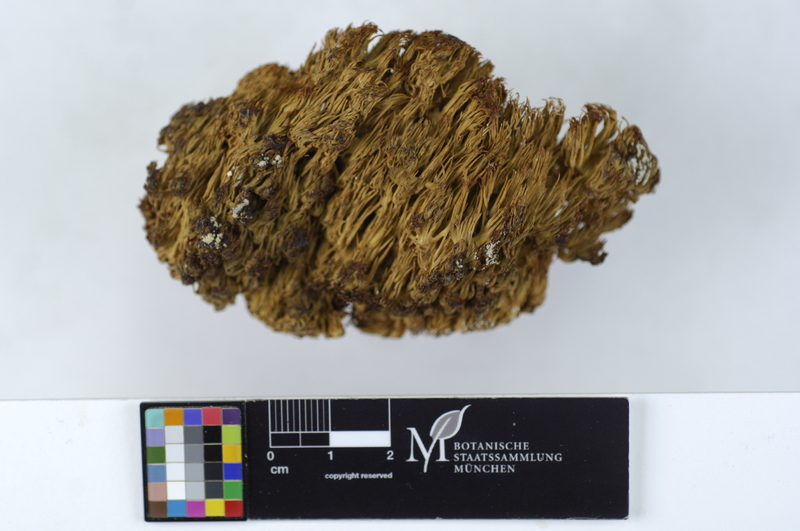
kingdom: Plantae
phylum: Tracheophyta
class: Pinopsida
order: Pinales
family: Pinaceae
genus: Picea
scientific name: Picea
